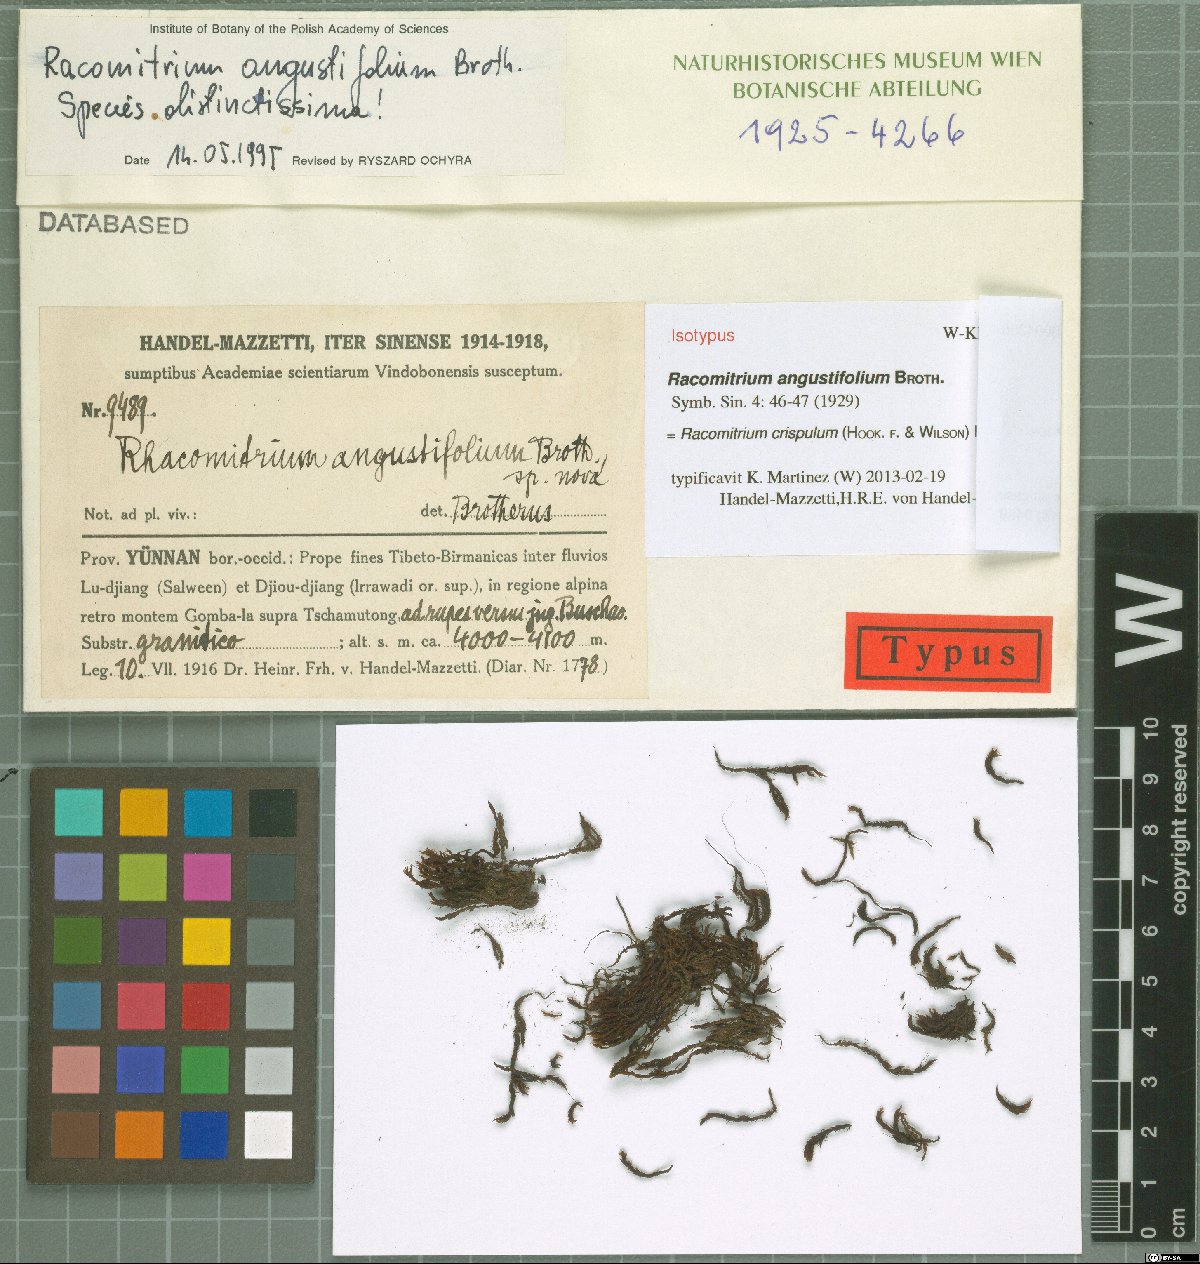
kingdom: Plantae
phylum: Bryophyta
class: Bryopsida
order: Grimmiales
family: Grimmiaceae
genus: Bucklandiella
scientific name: Bucklandiella angustifolia
